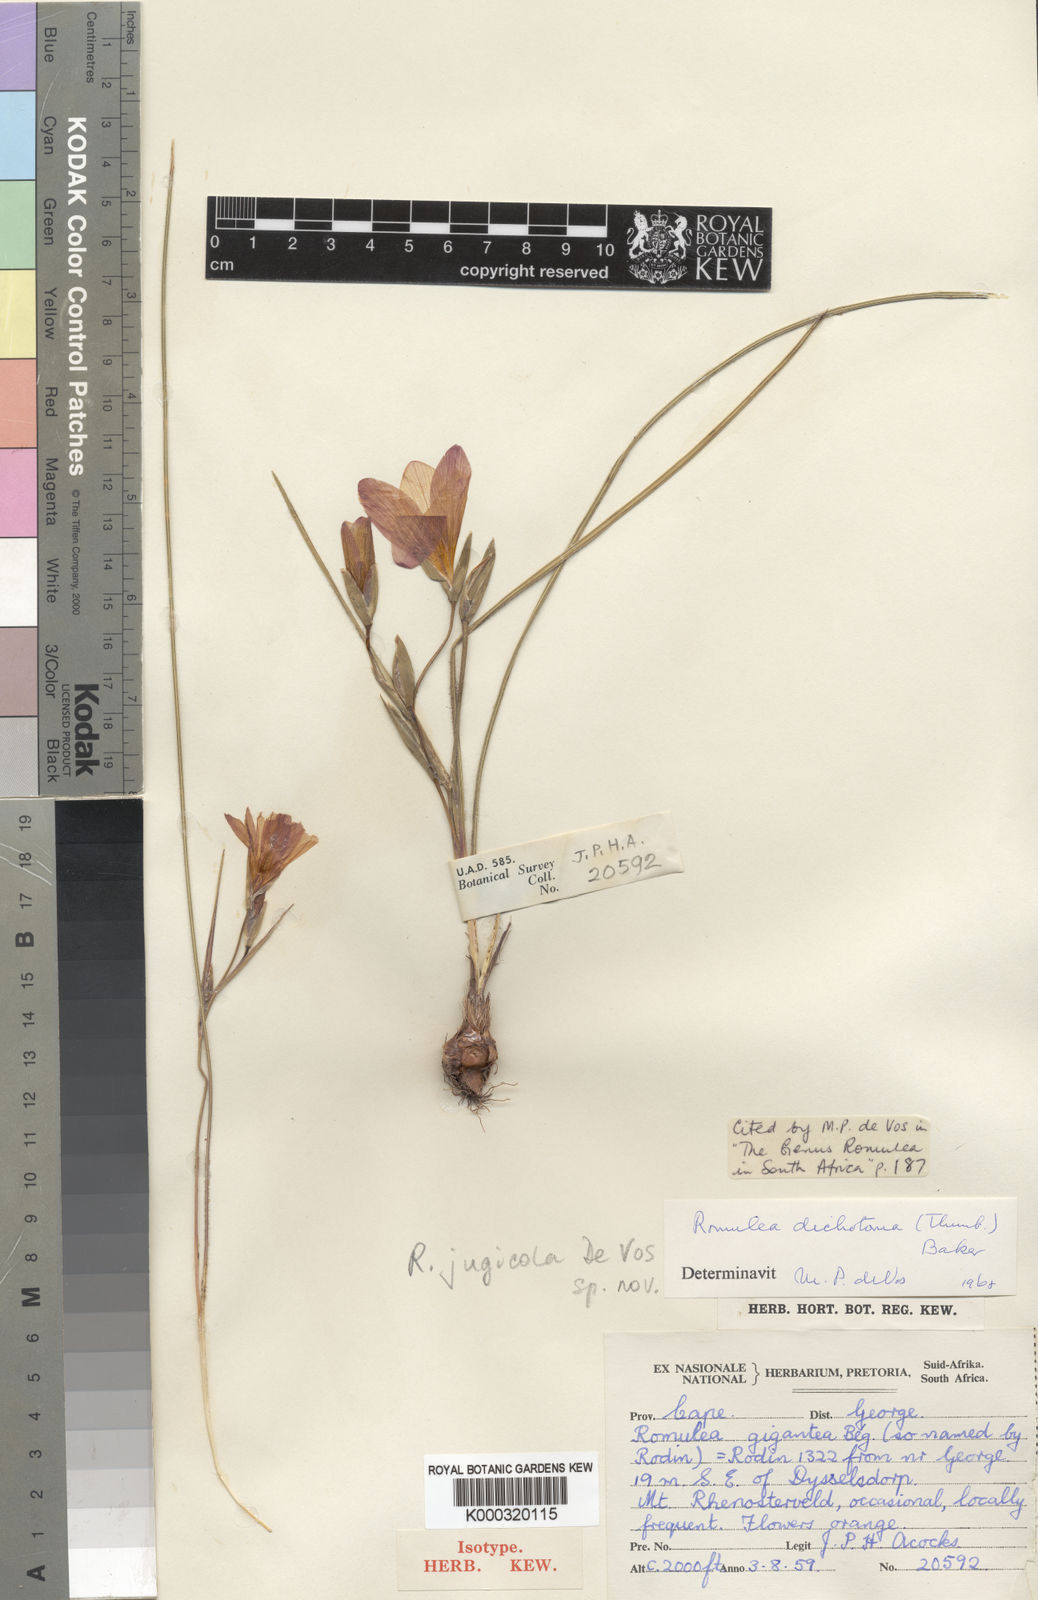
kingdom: Plantae
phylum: Tracheophyta
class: Liliopsida
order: Asparagales
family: Iridaceae
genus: Romulea
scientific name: Romulea jugicola
